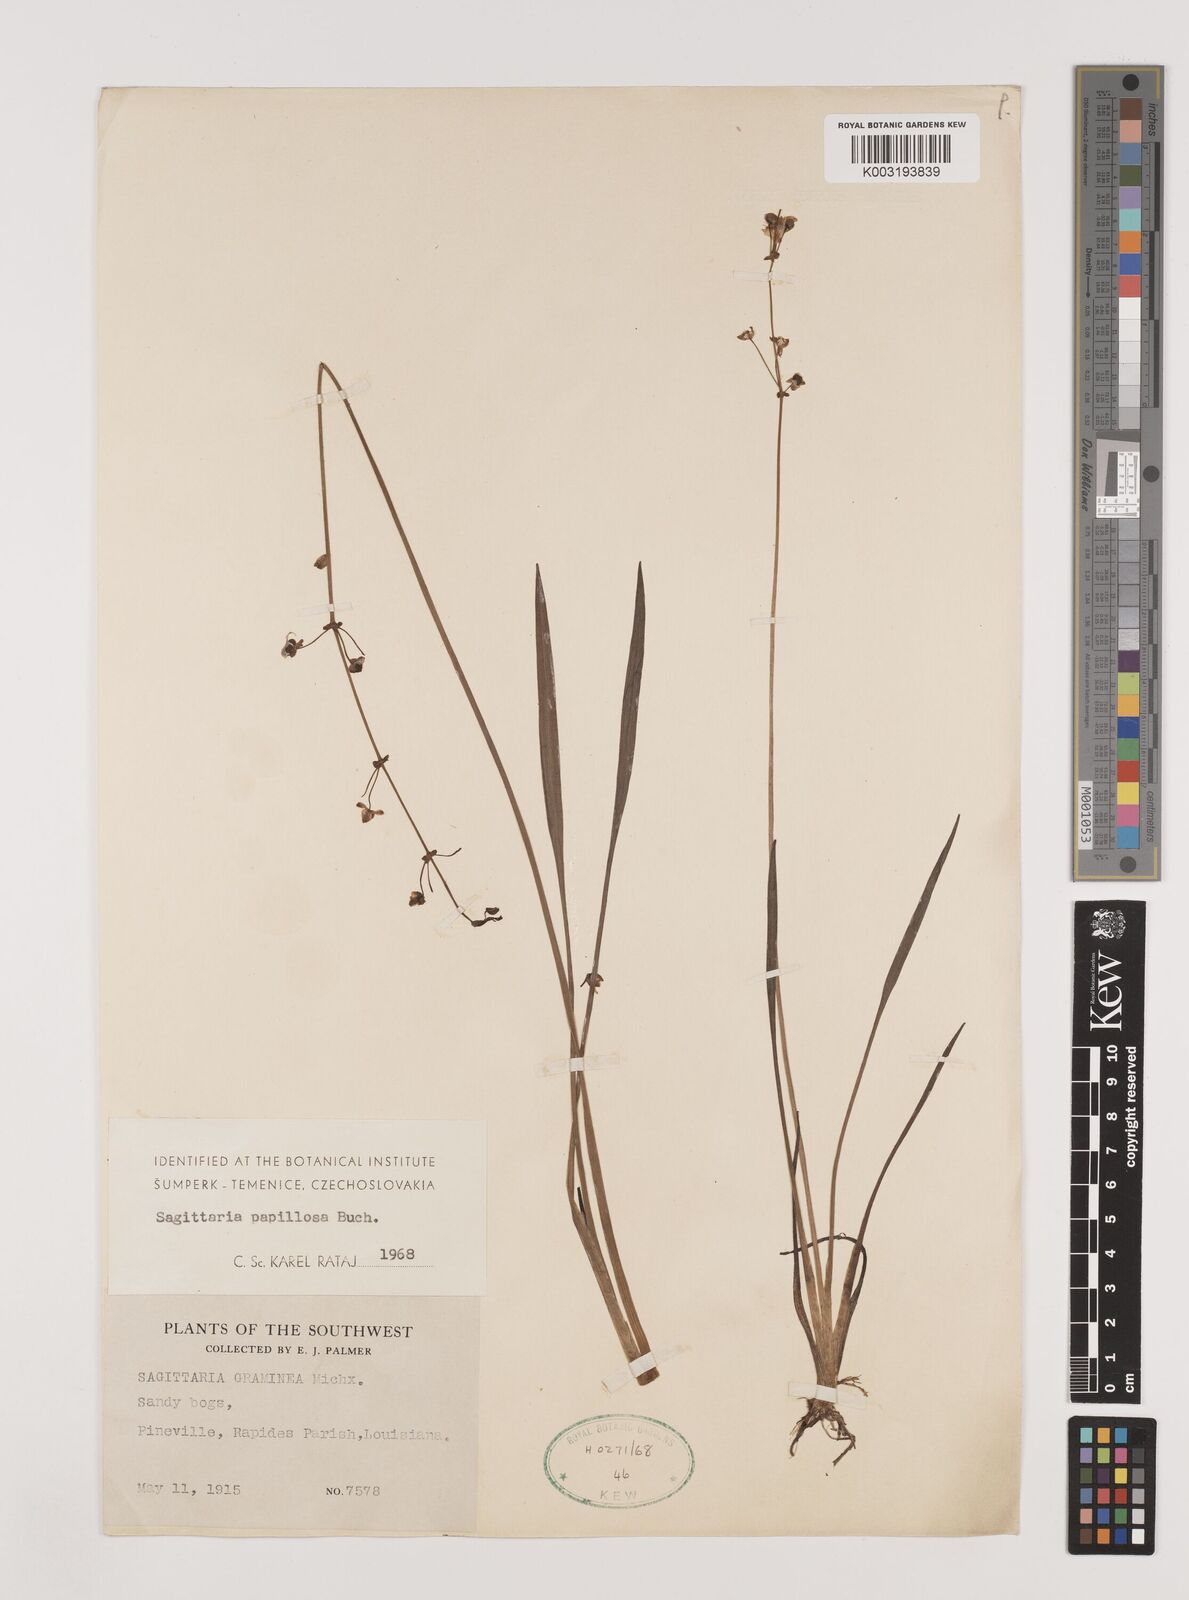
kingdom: Plantae
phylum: Tracheophyta
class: Liliopsida
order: Alismatales
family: Alismataceae
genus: Sagittaria
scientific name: Sagittaria papillosa
